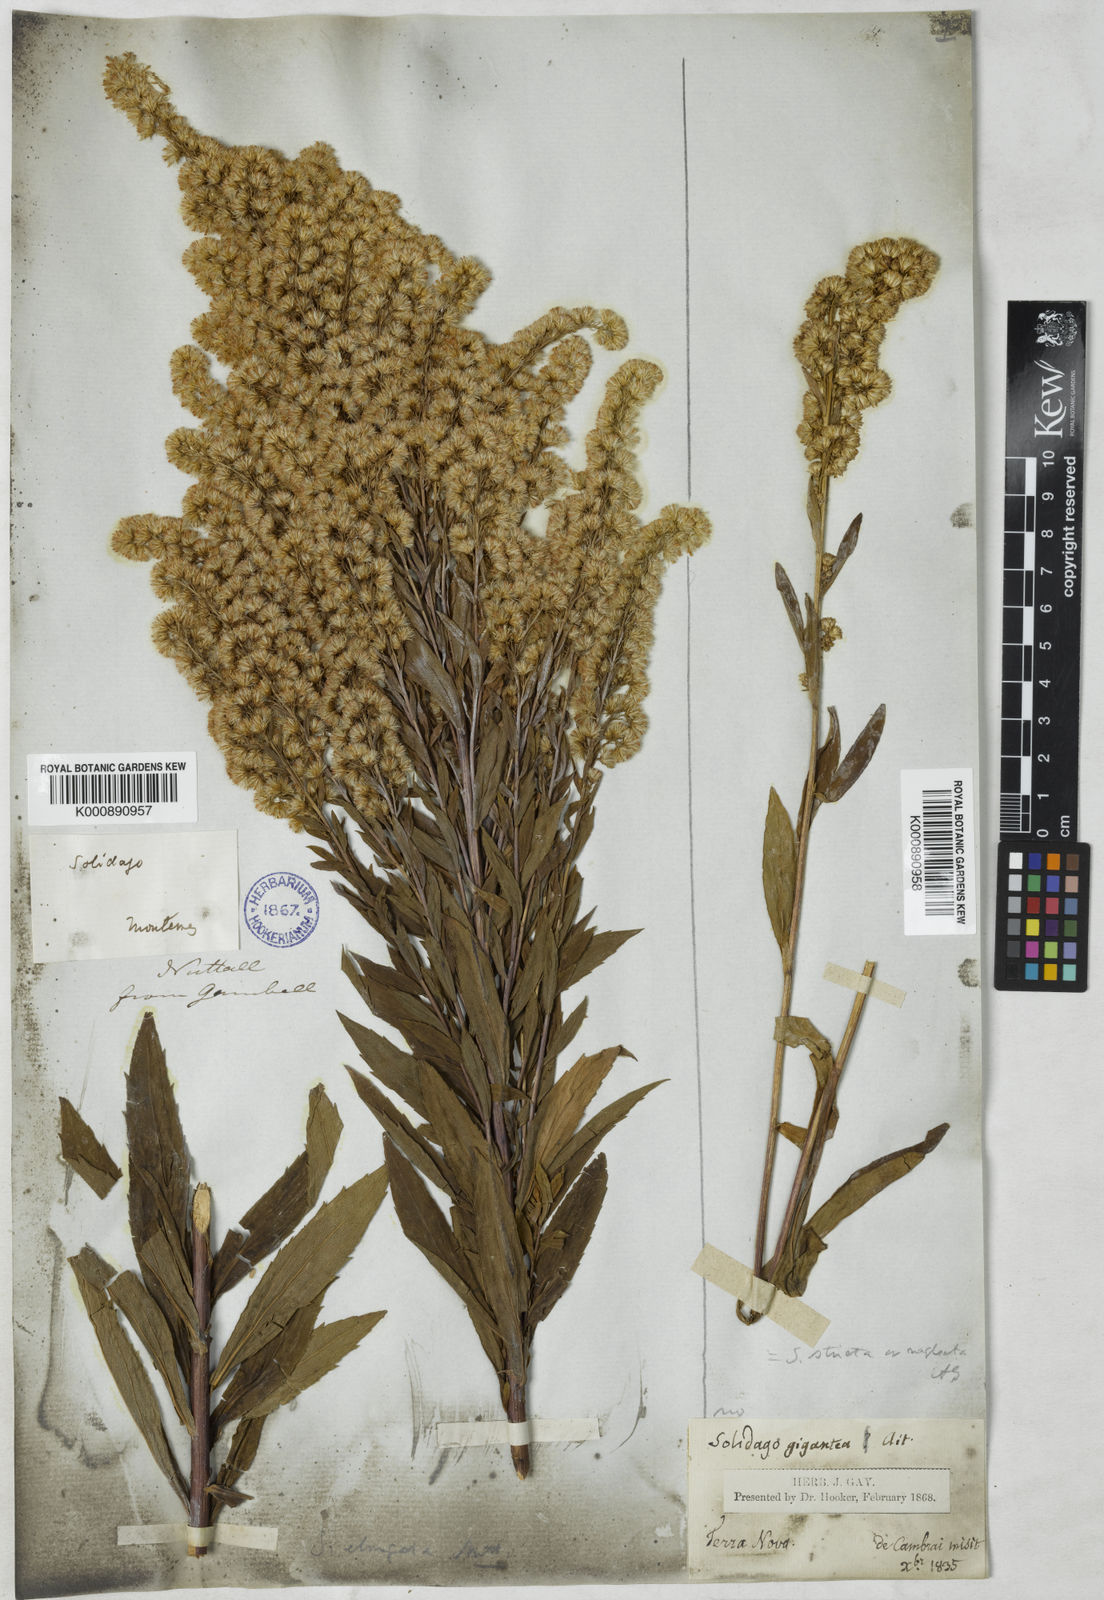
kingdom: Plantae
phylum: Tracheophyta
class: Magnoliopsida
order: Asterales
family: Asteraceae
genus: Solidago
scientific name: Solidago latissimifolia
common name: Elliott's goldenrod
